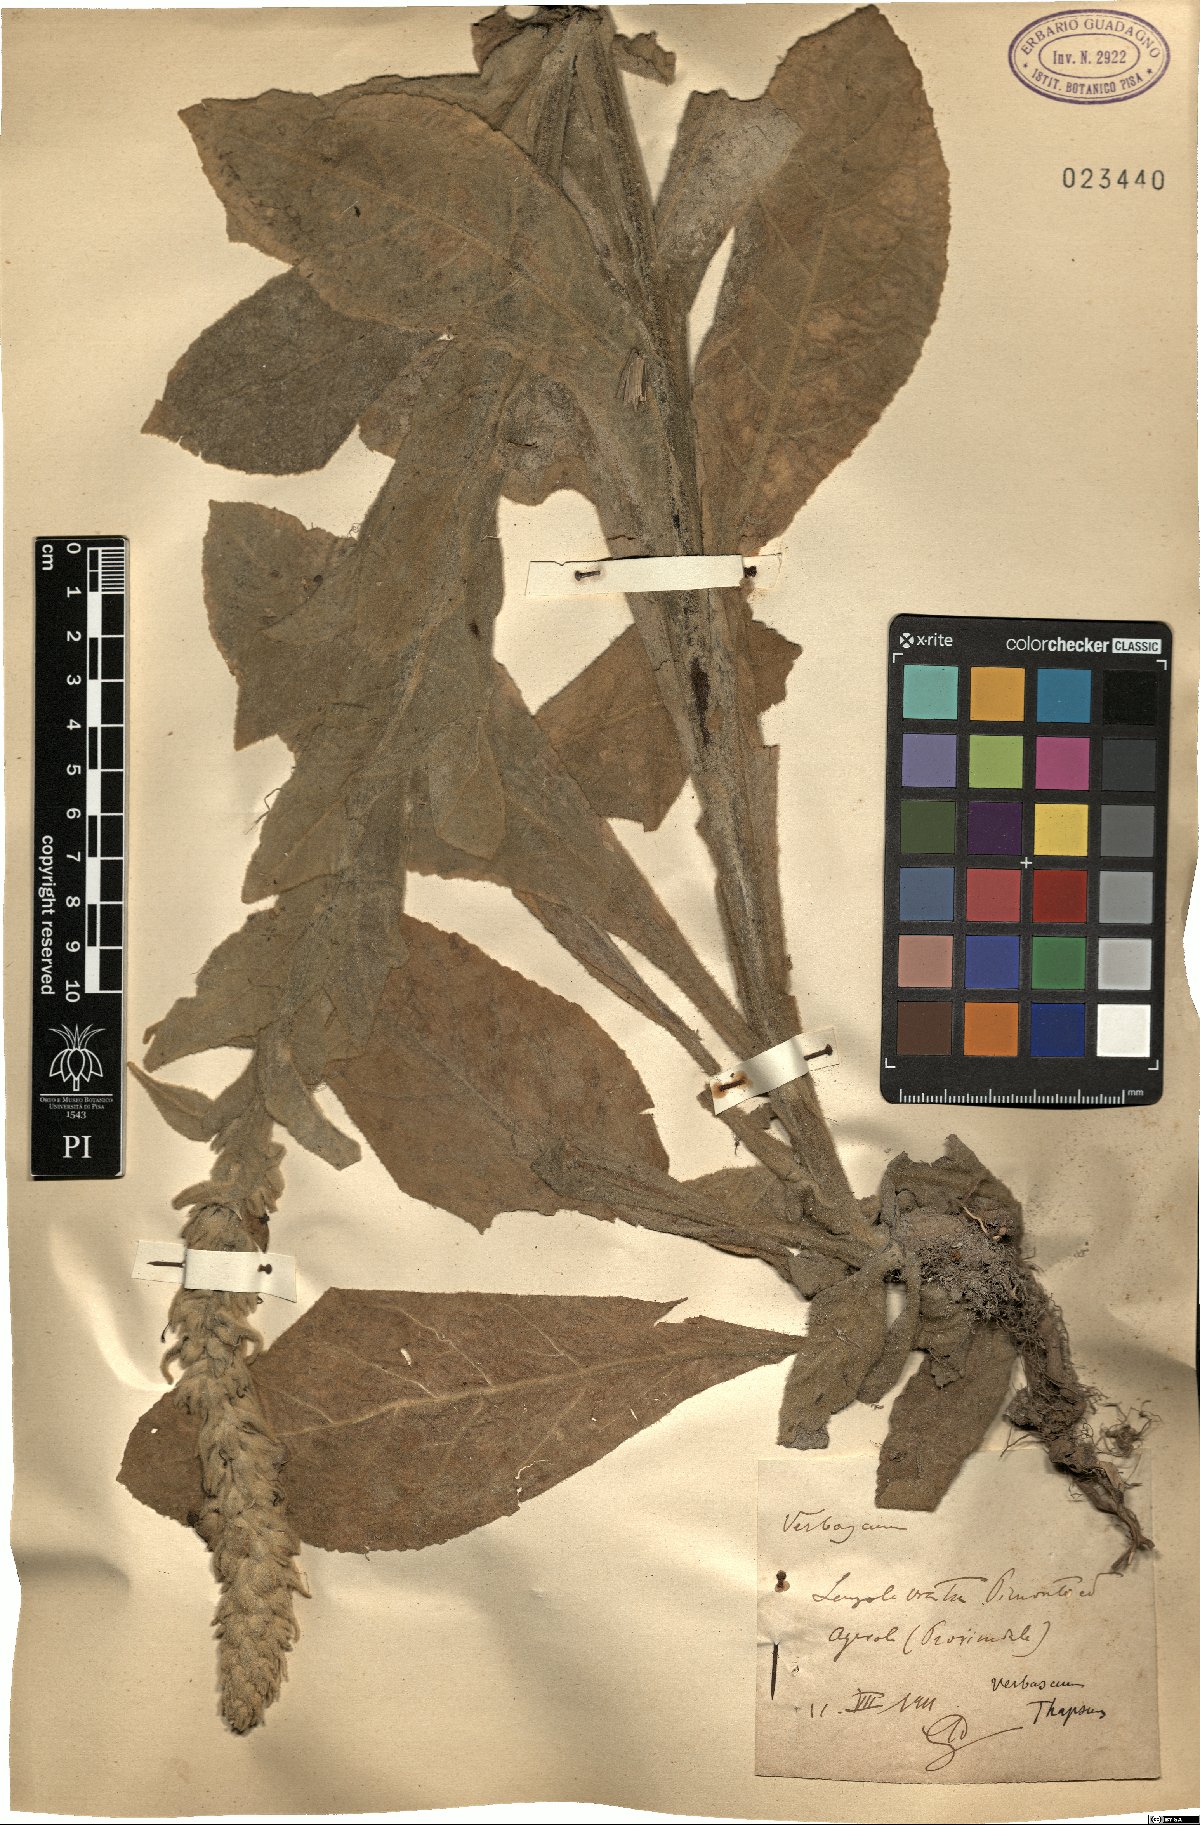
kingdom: Plantae
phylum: Tracheophyta
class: Magnoliopsida
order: Lamiales
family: Scrophulariaceae
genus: Verbascum
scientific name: Verbascum thapsus
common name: Common mullein
